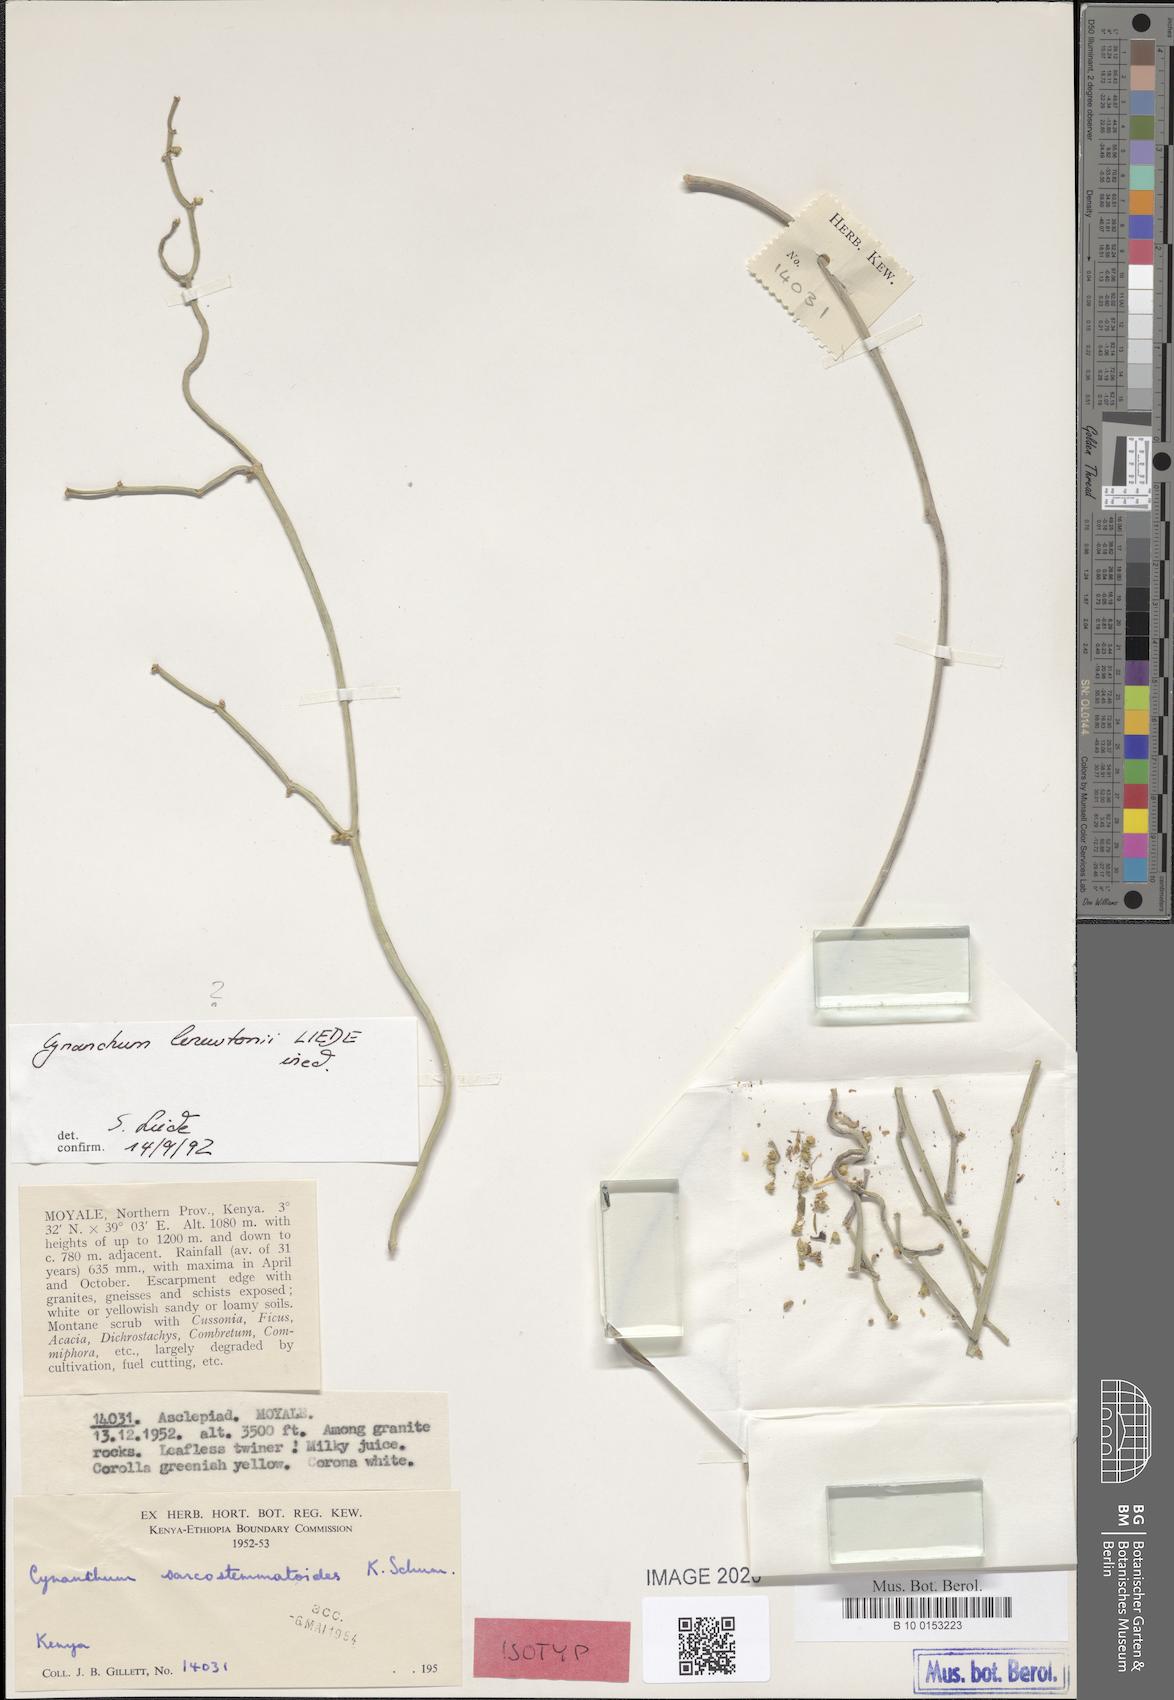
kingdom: Plantae
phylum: Tracheophyta
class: Magnoliopsida
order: Gentianales
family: Apocynaceae
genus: Cynanchum
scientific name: Cynanchum gerrardi
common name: Swallow-wort
